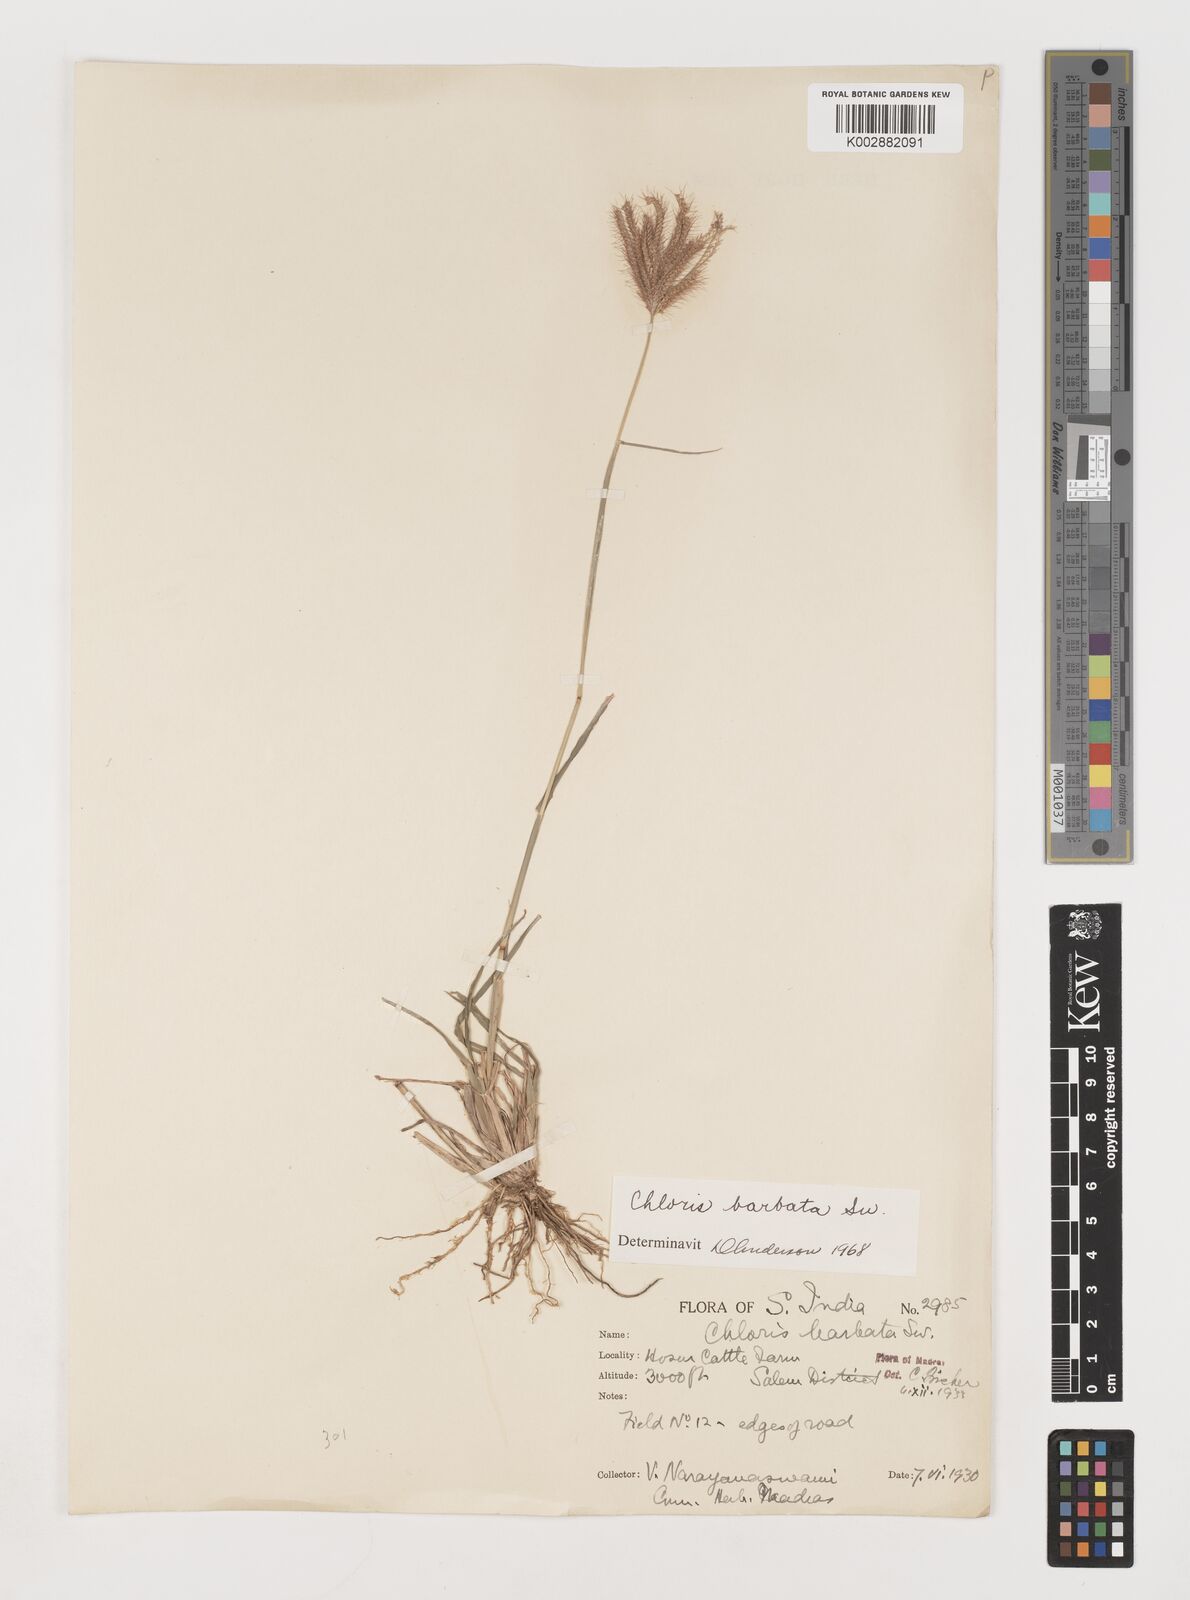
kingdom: Plantae
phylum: Tracheophyta
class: Liliopsida
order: Poales
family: Poaceae
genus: Chloris
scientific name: Chloris barbata
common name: Swollen fingergrass
